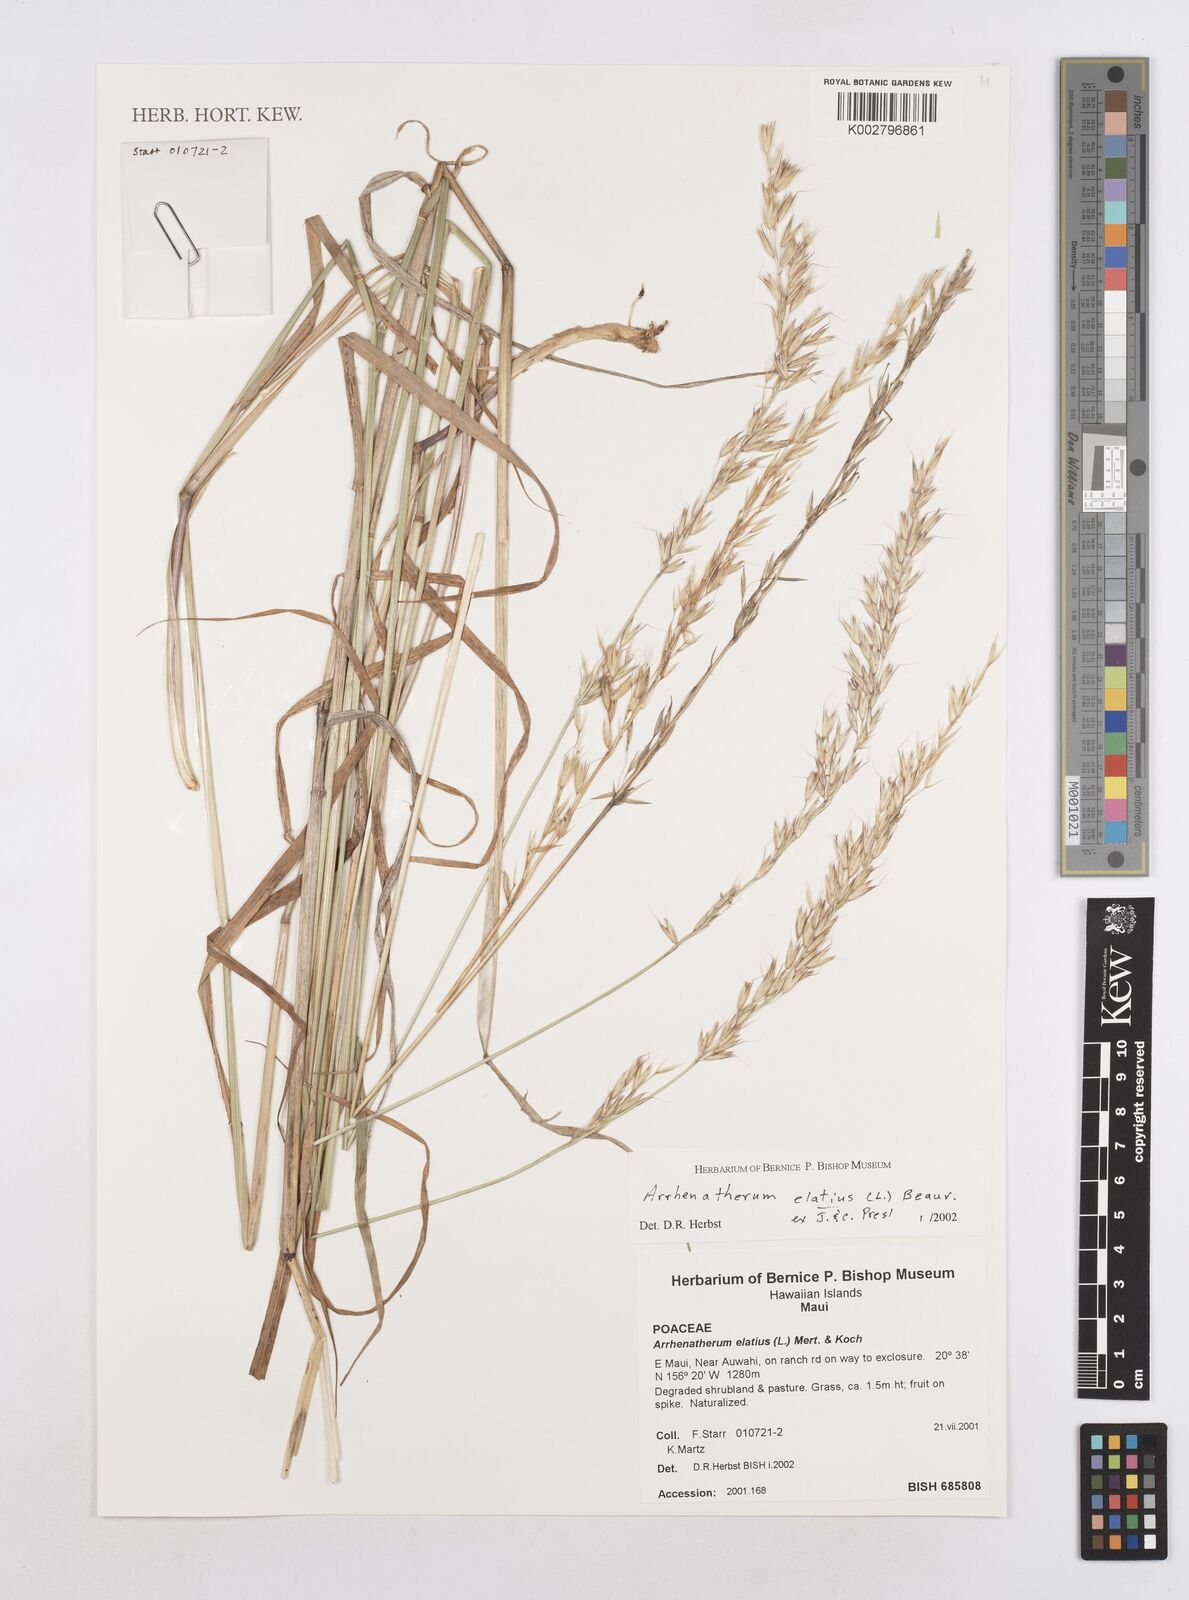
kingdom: Plantae
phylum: Tracheophyta
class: Liliopsida
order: Poales
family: Poaceae
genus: Arrhenatherum
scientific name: Arrhenatherum
